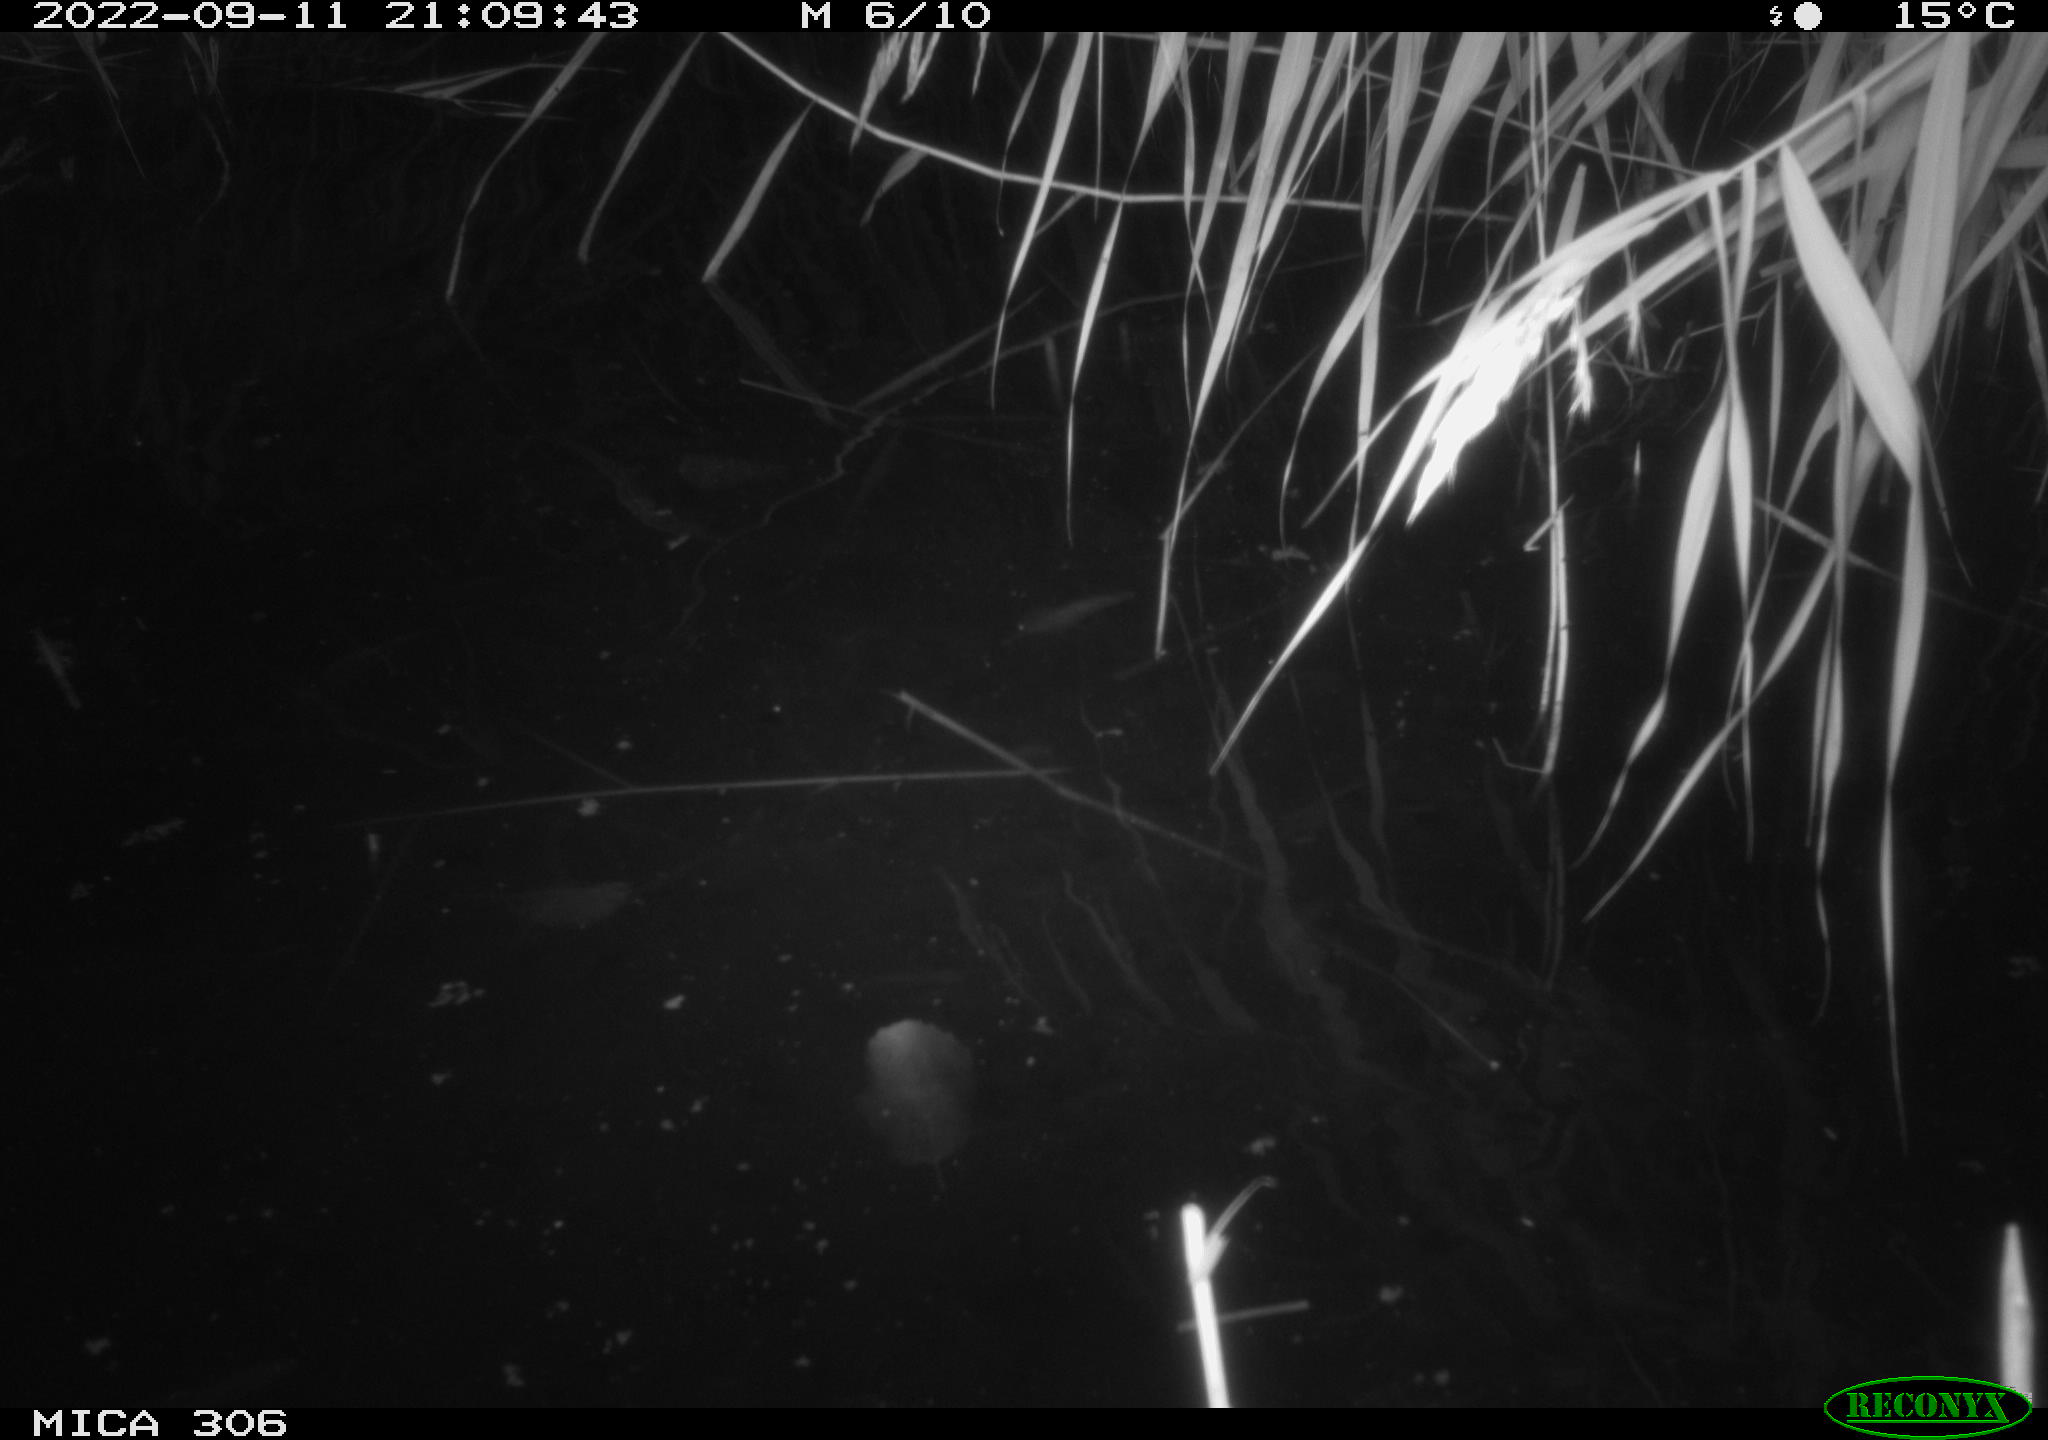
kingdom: Animalia
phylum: Chordata
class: Mammalia
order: Rodentia
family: Muridae
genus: Rattus
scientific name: Rattus norvegicus
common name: Brown rat
